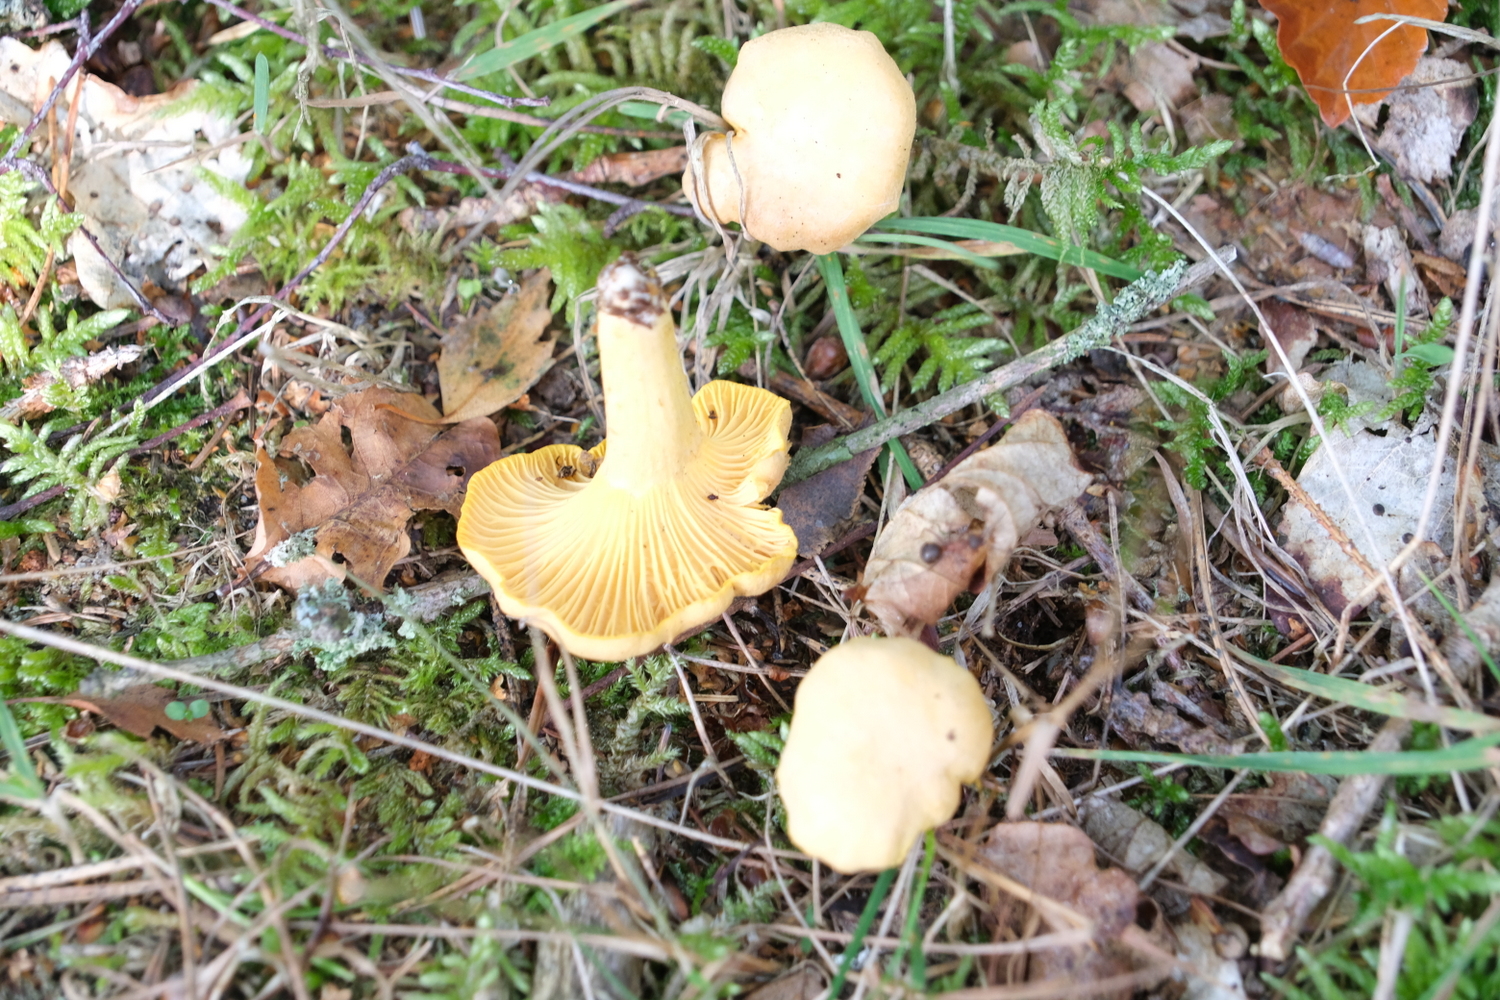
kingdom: Fungi
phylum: Basidiomycota
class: Agaricomycetes
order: Cantharellales
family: Hydnaceae
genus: Cantharellus
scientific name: Cantharellus cibarius
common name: almindelig kantarel
